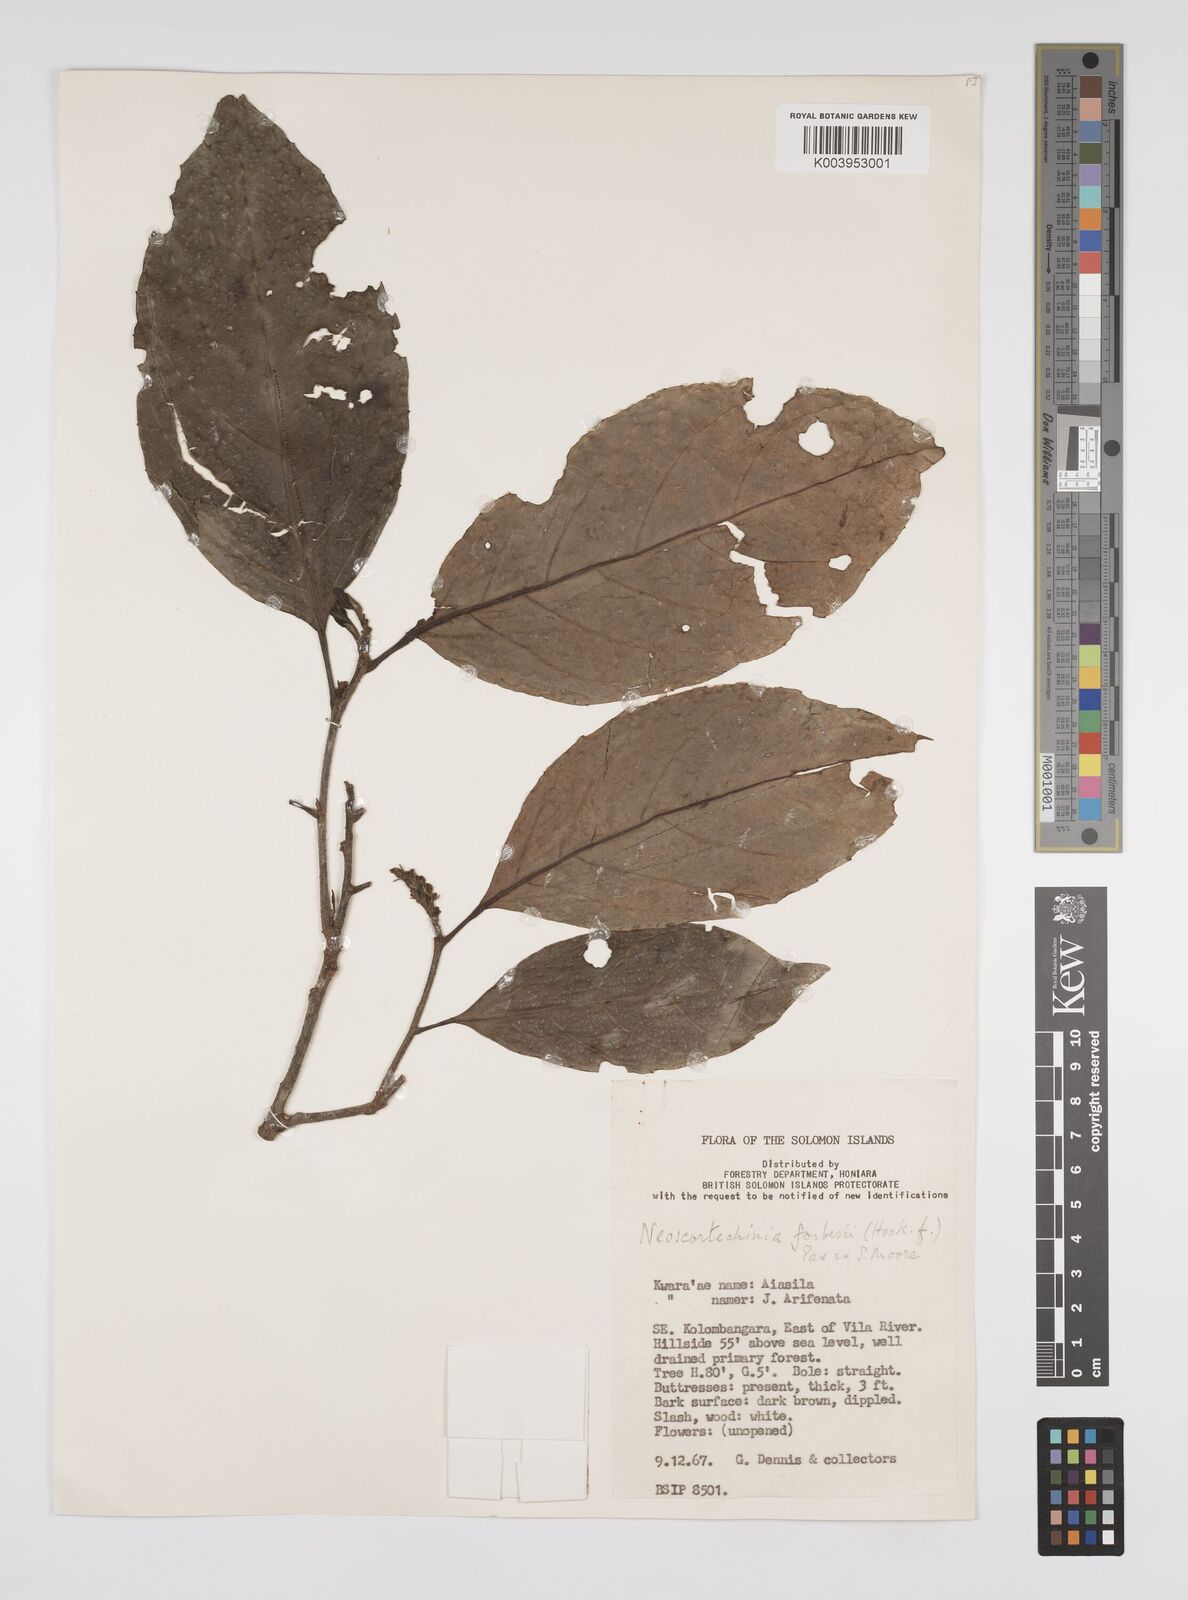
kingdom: Plantae
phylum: Tracheophyta
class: Magnoliopsida
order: Malpighiales
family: Euphorbiaceae
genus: Neoscortechinia
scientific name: Neoscortechinia forbesii
